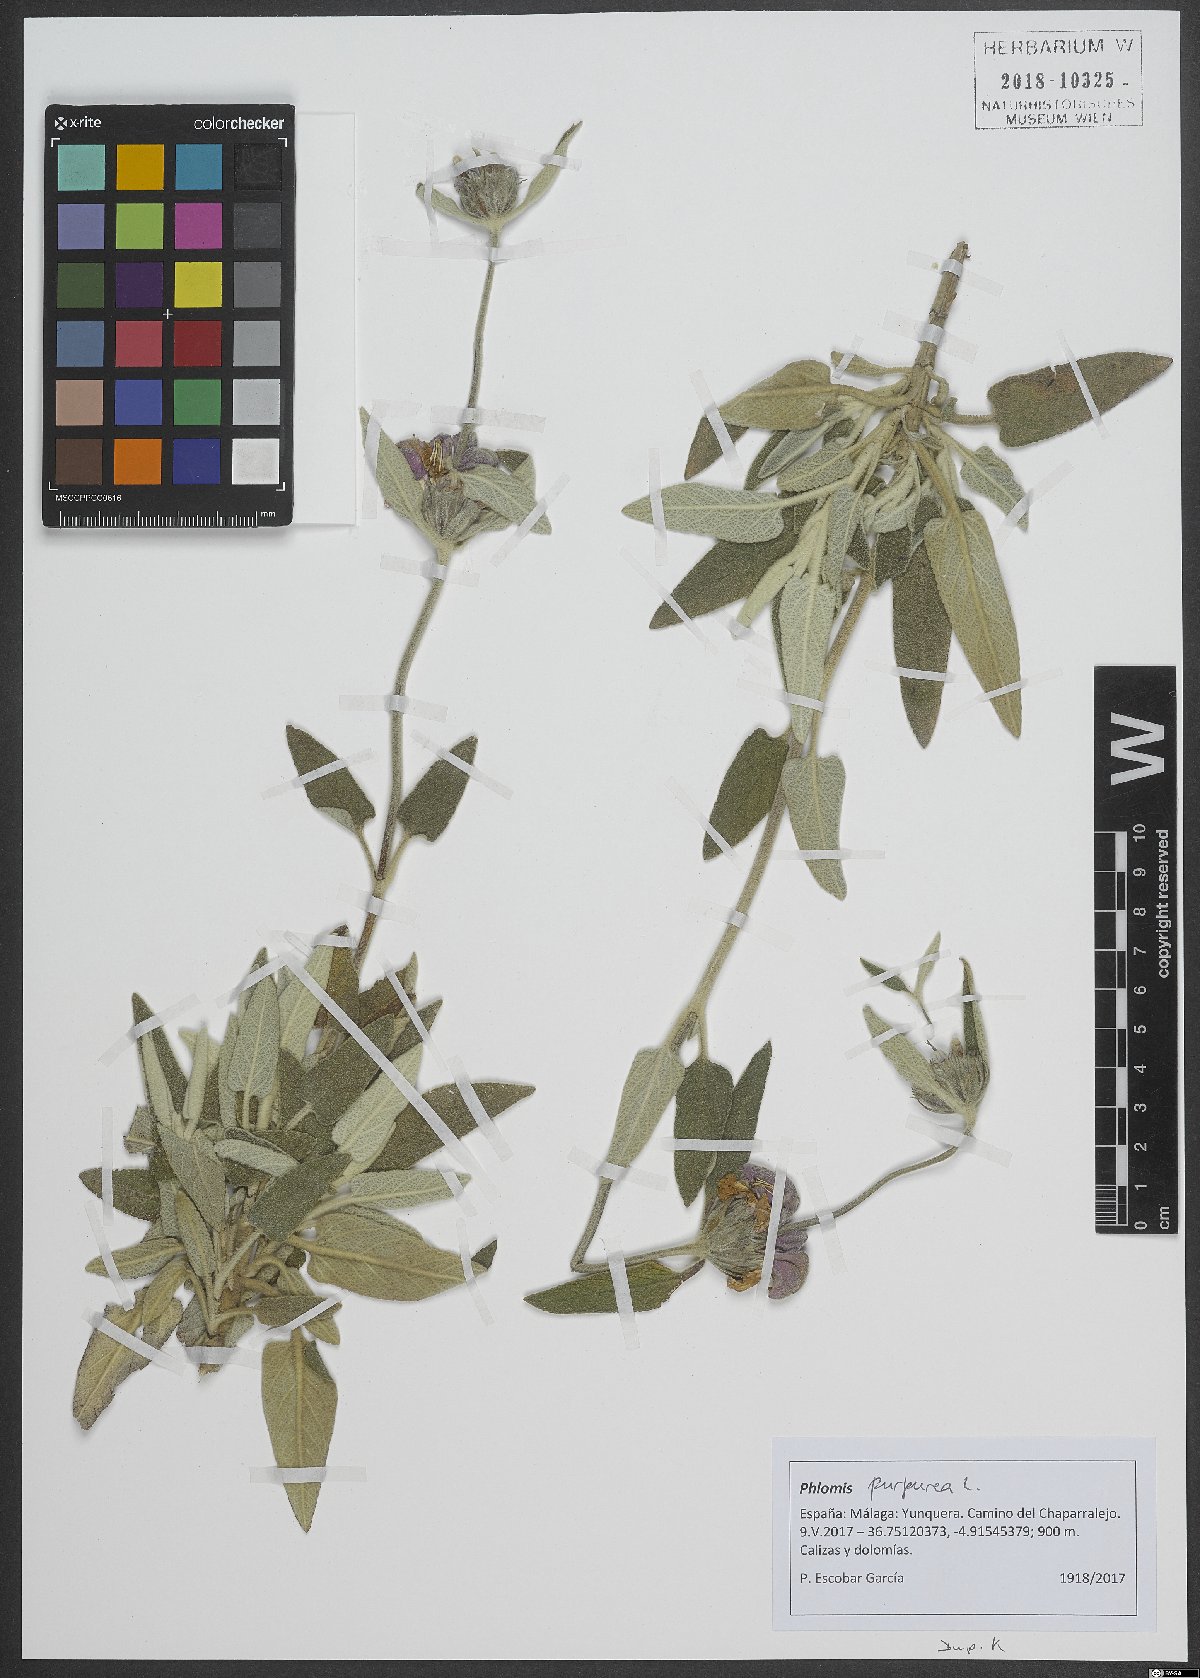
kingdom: Plantae
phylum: Tracheophyta
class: Magnoliopsida
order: Lamiales
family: Lamiaceae
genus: Phlomis
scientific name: Phlomis purpurea
